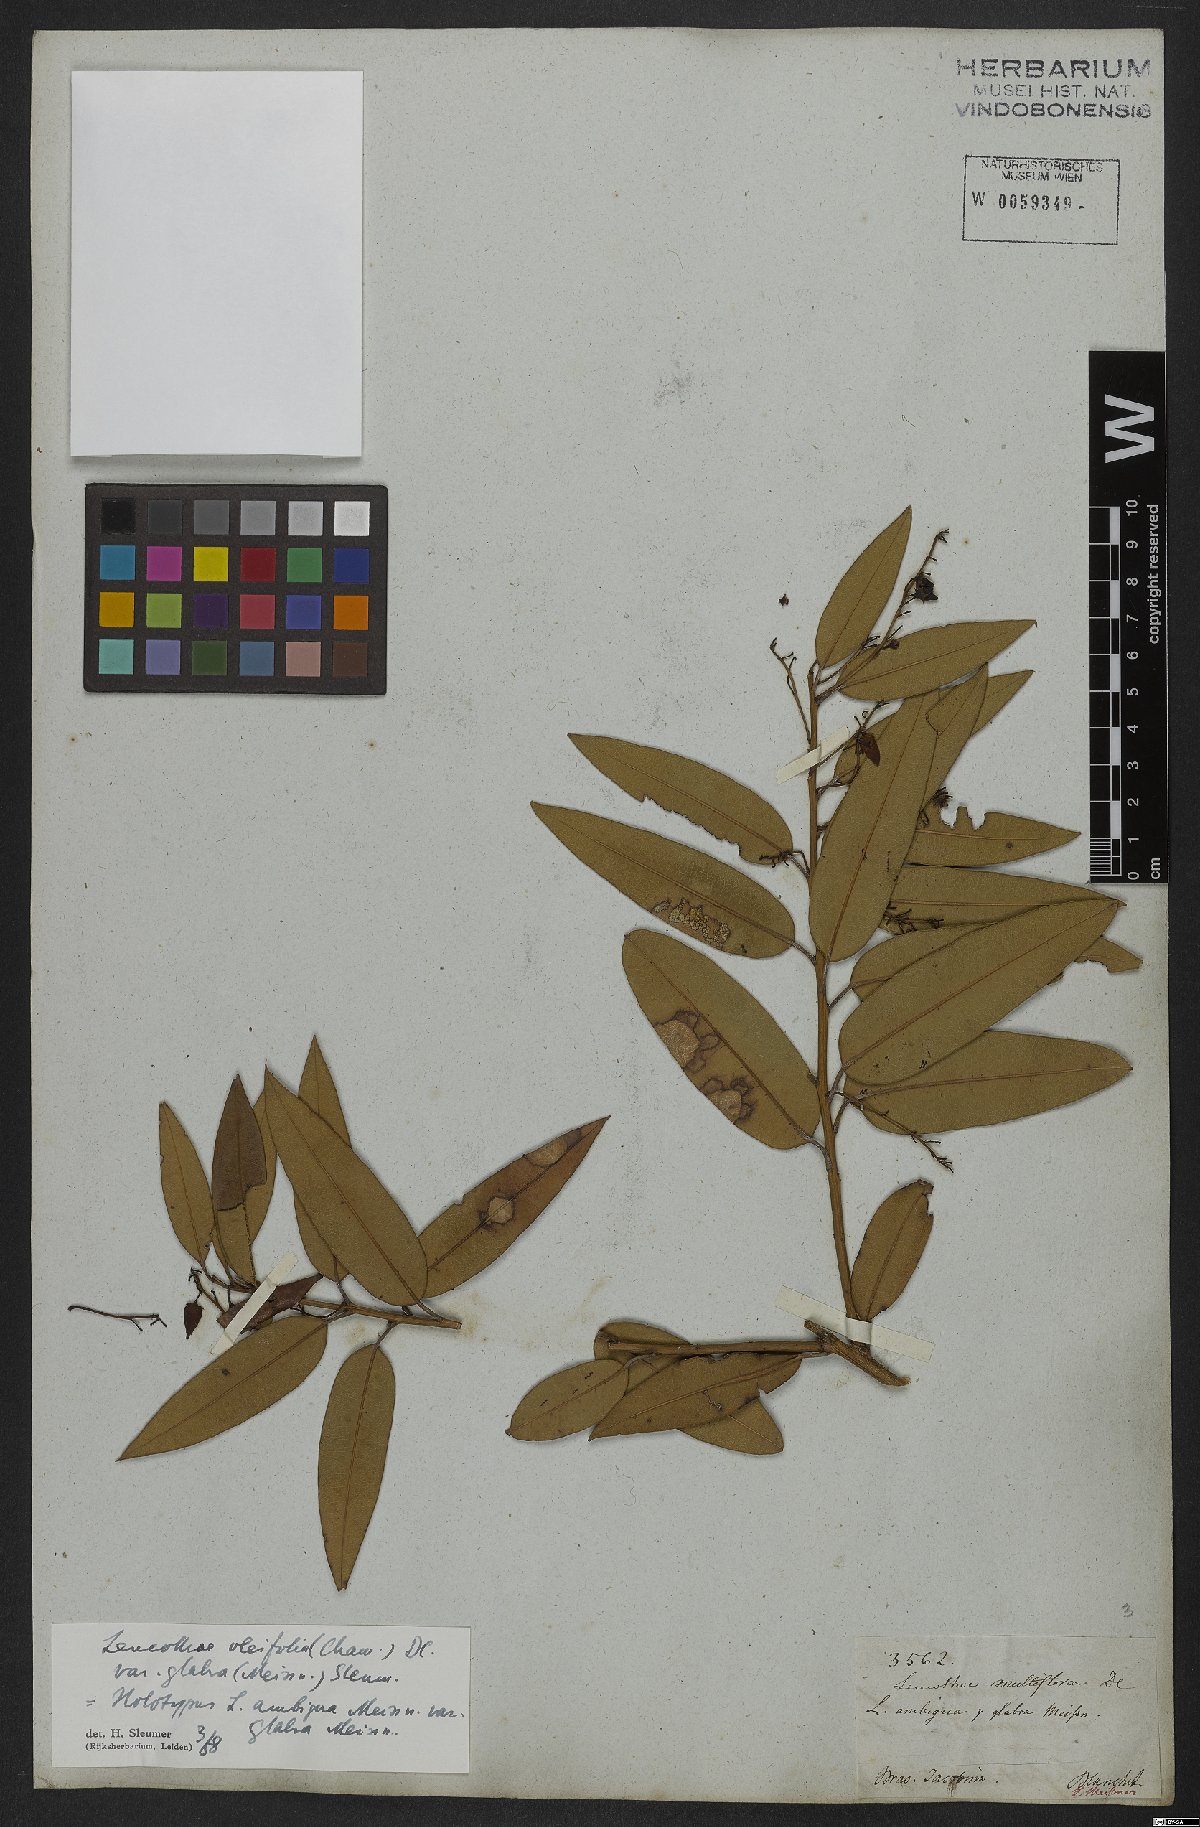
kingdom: Plantae
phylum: Tracheophyta
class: Magnoliopsida
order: Ericales
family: Ericaceae
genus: Agarista
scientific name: Agarista oleifolia
